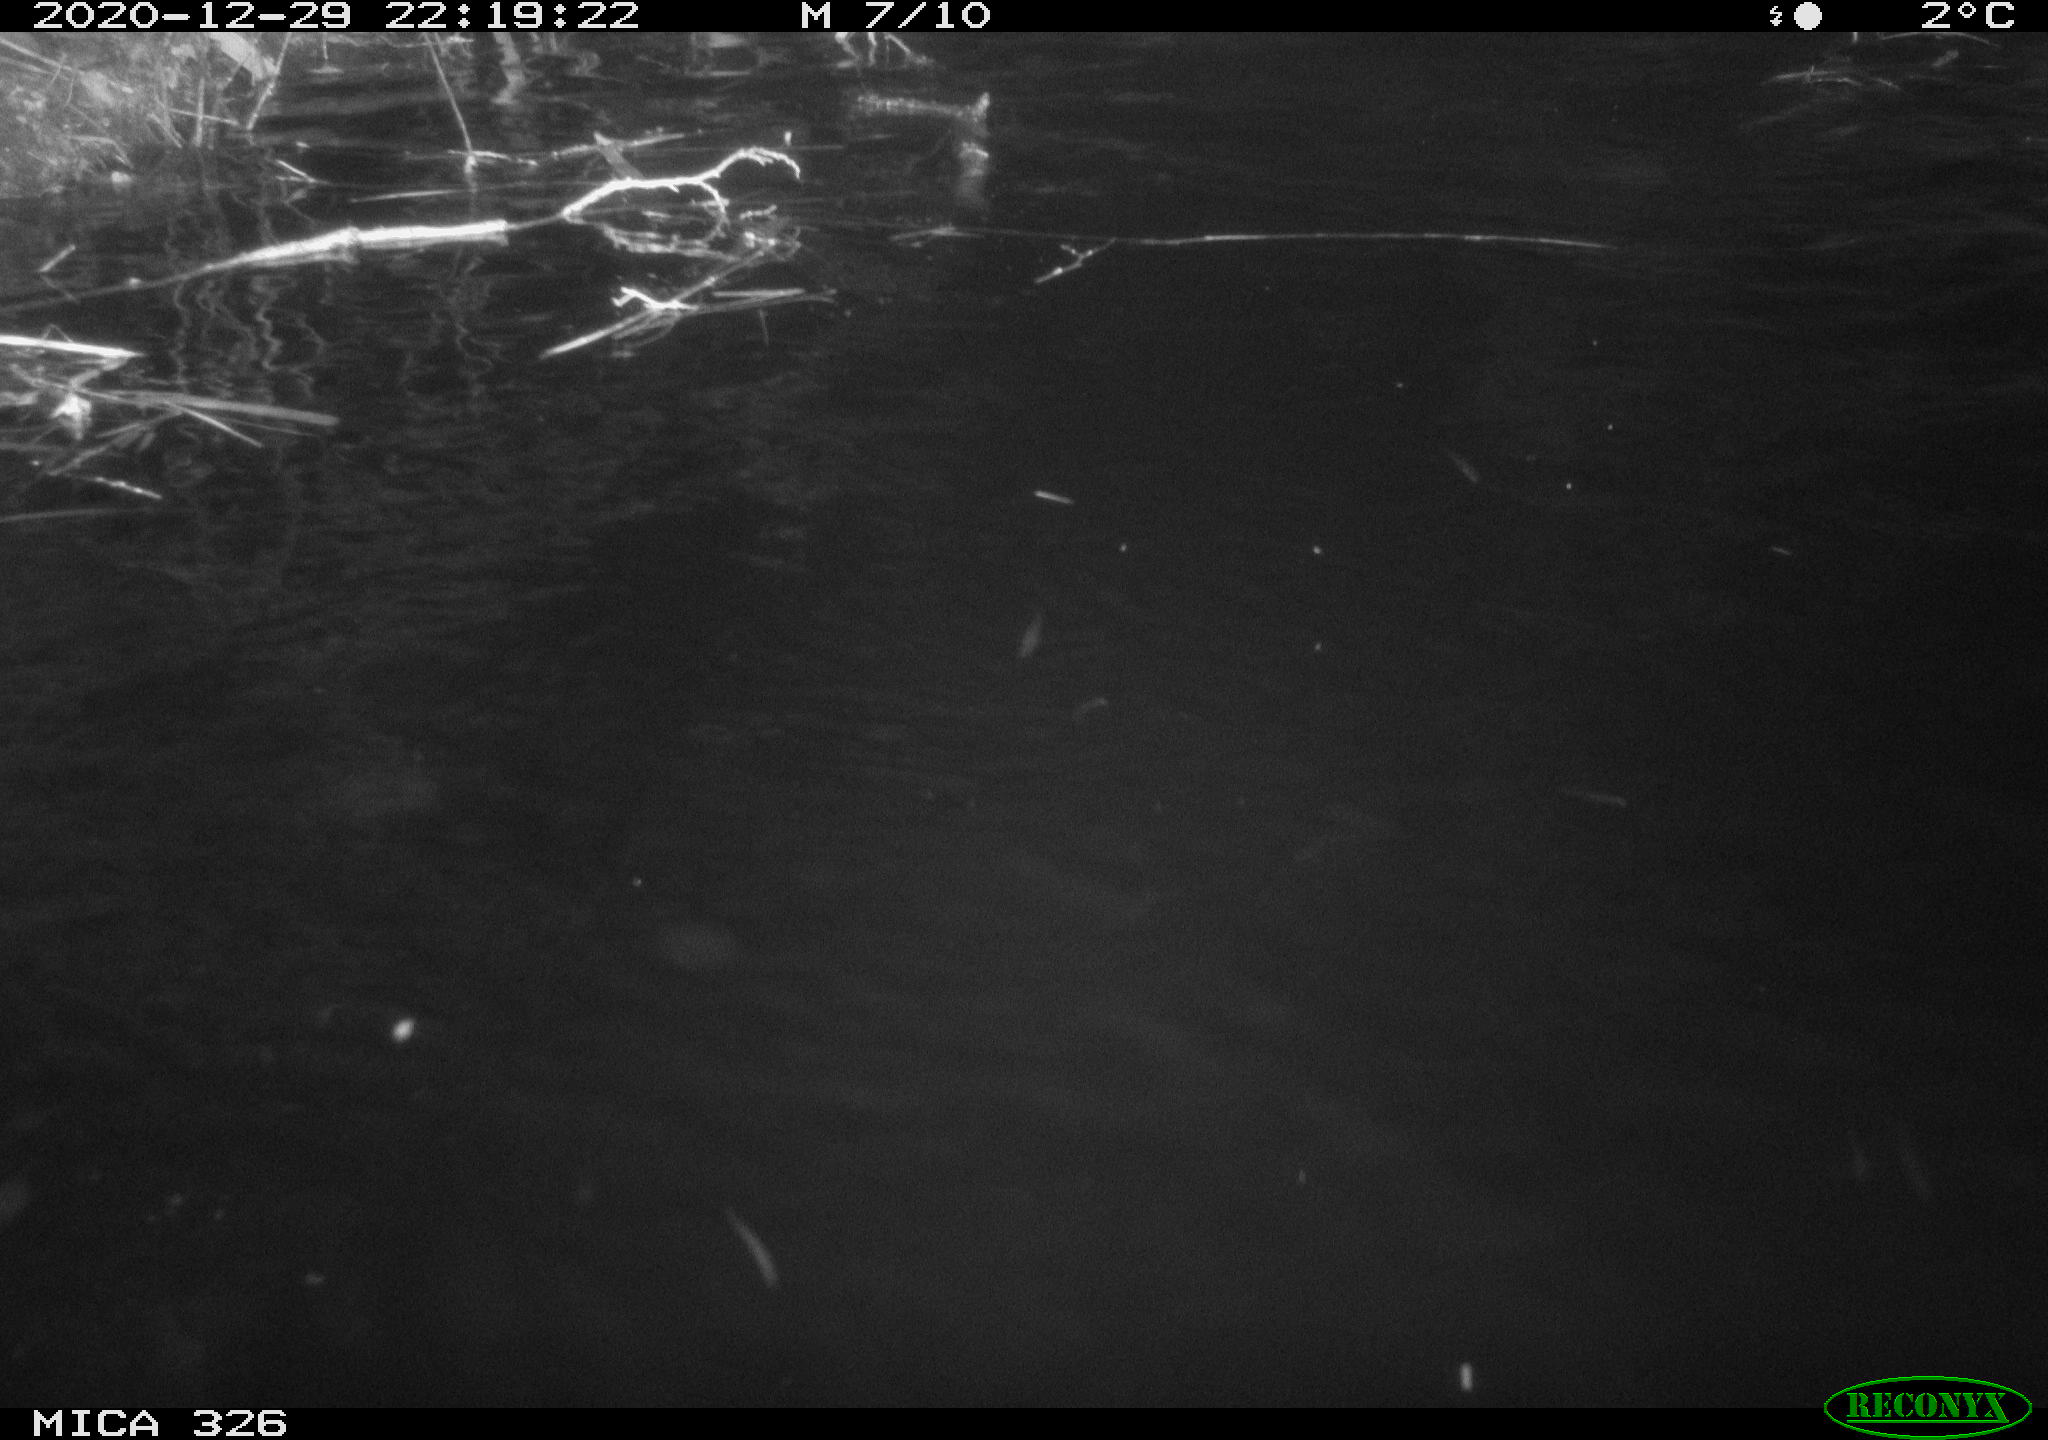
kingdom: Animalia
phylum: Chordata
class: Mammalia
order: Carnivora
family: Mustelidae
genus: Lutra
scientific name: Lutra lutra
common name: European otter
